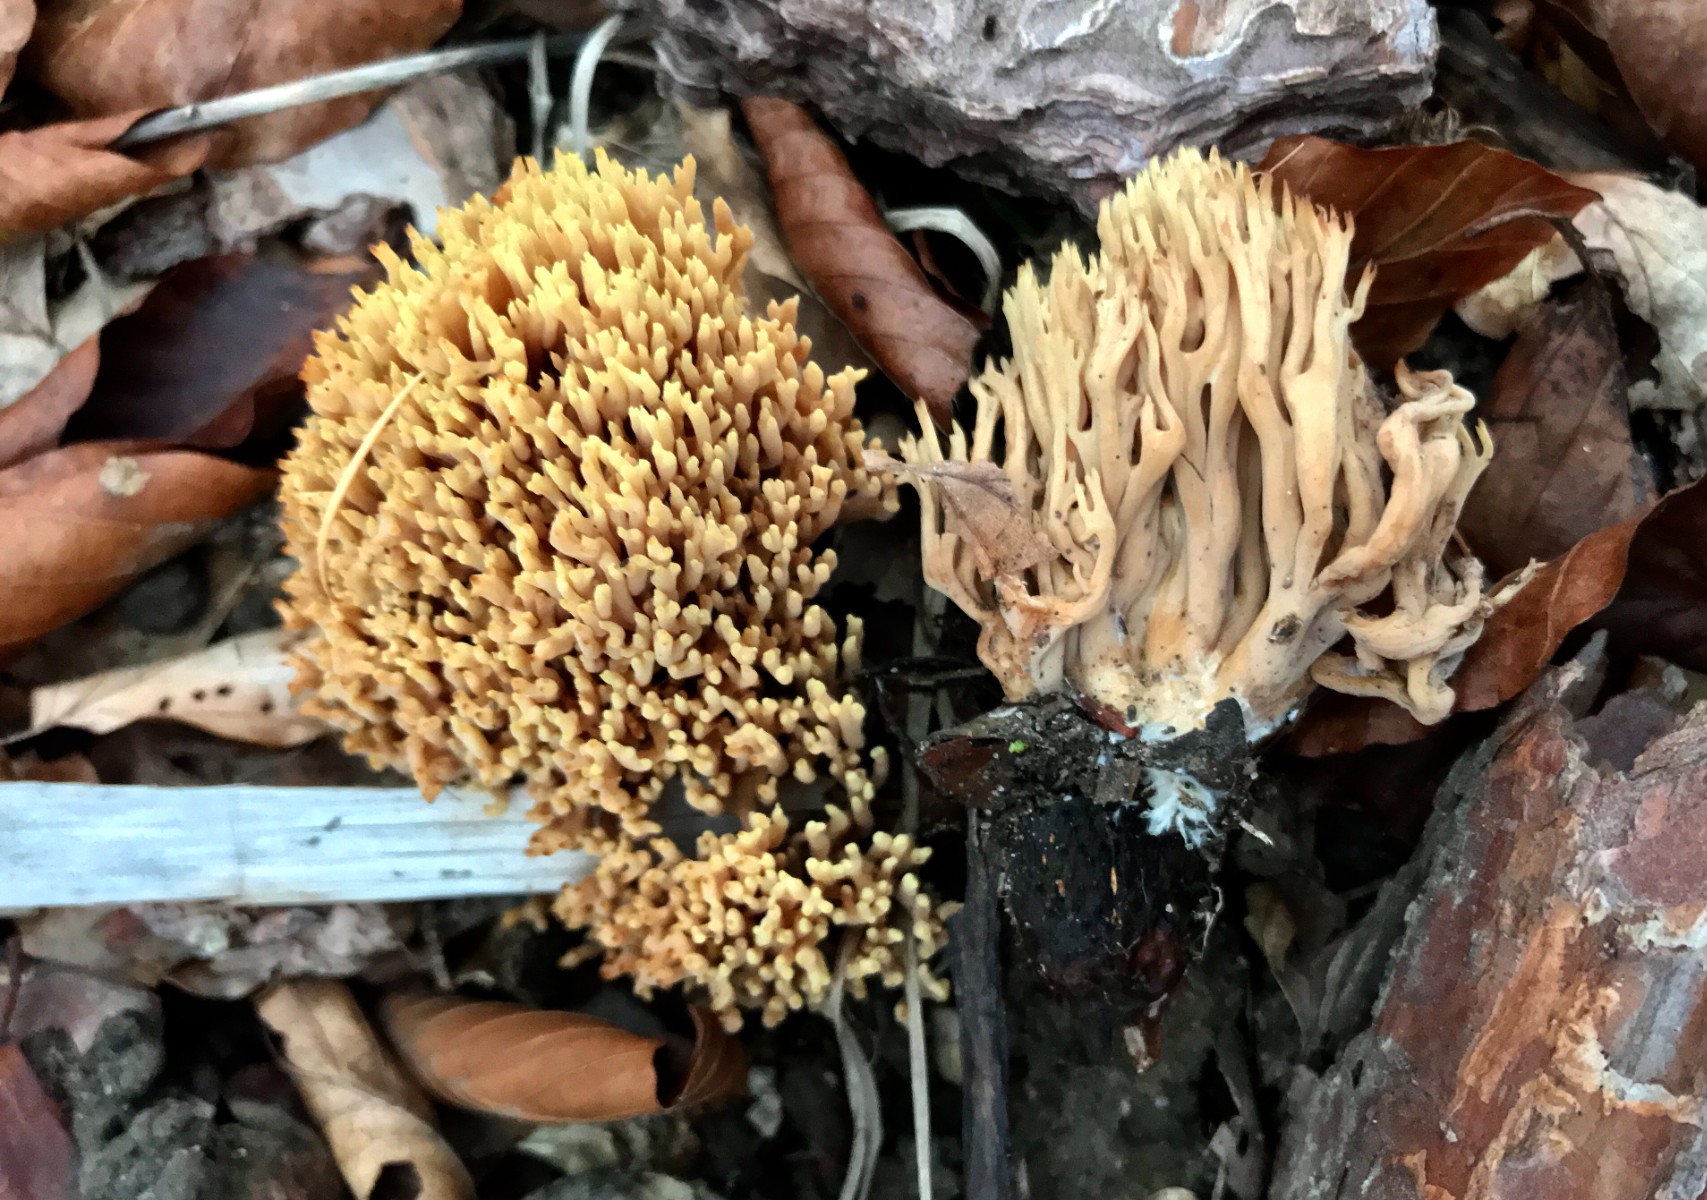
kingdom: Fungi
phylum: Basidiomycota
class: Agaricomycetes
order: Gomphales
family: Gomphaceae
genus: Ramaria
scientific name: Ramaria stricta
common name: rank koralsvamp
